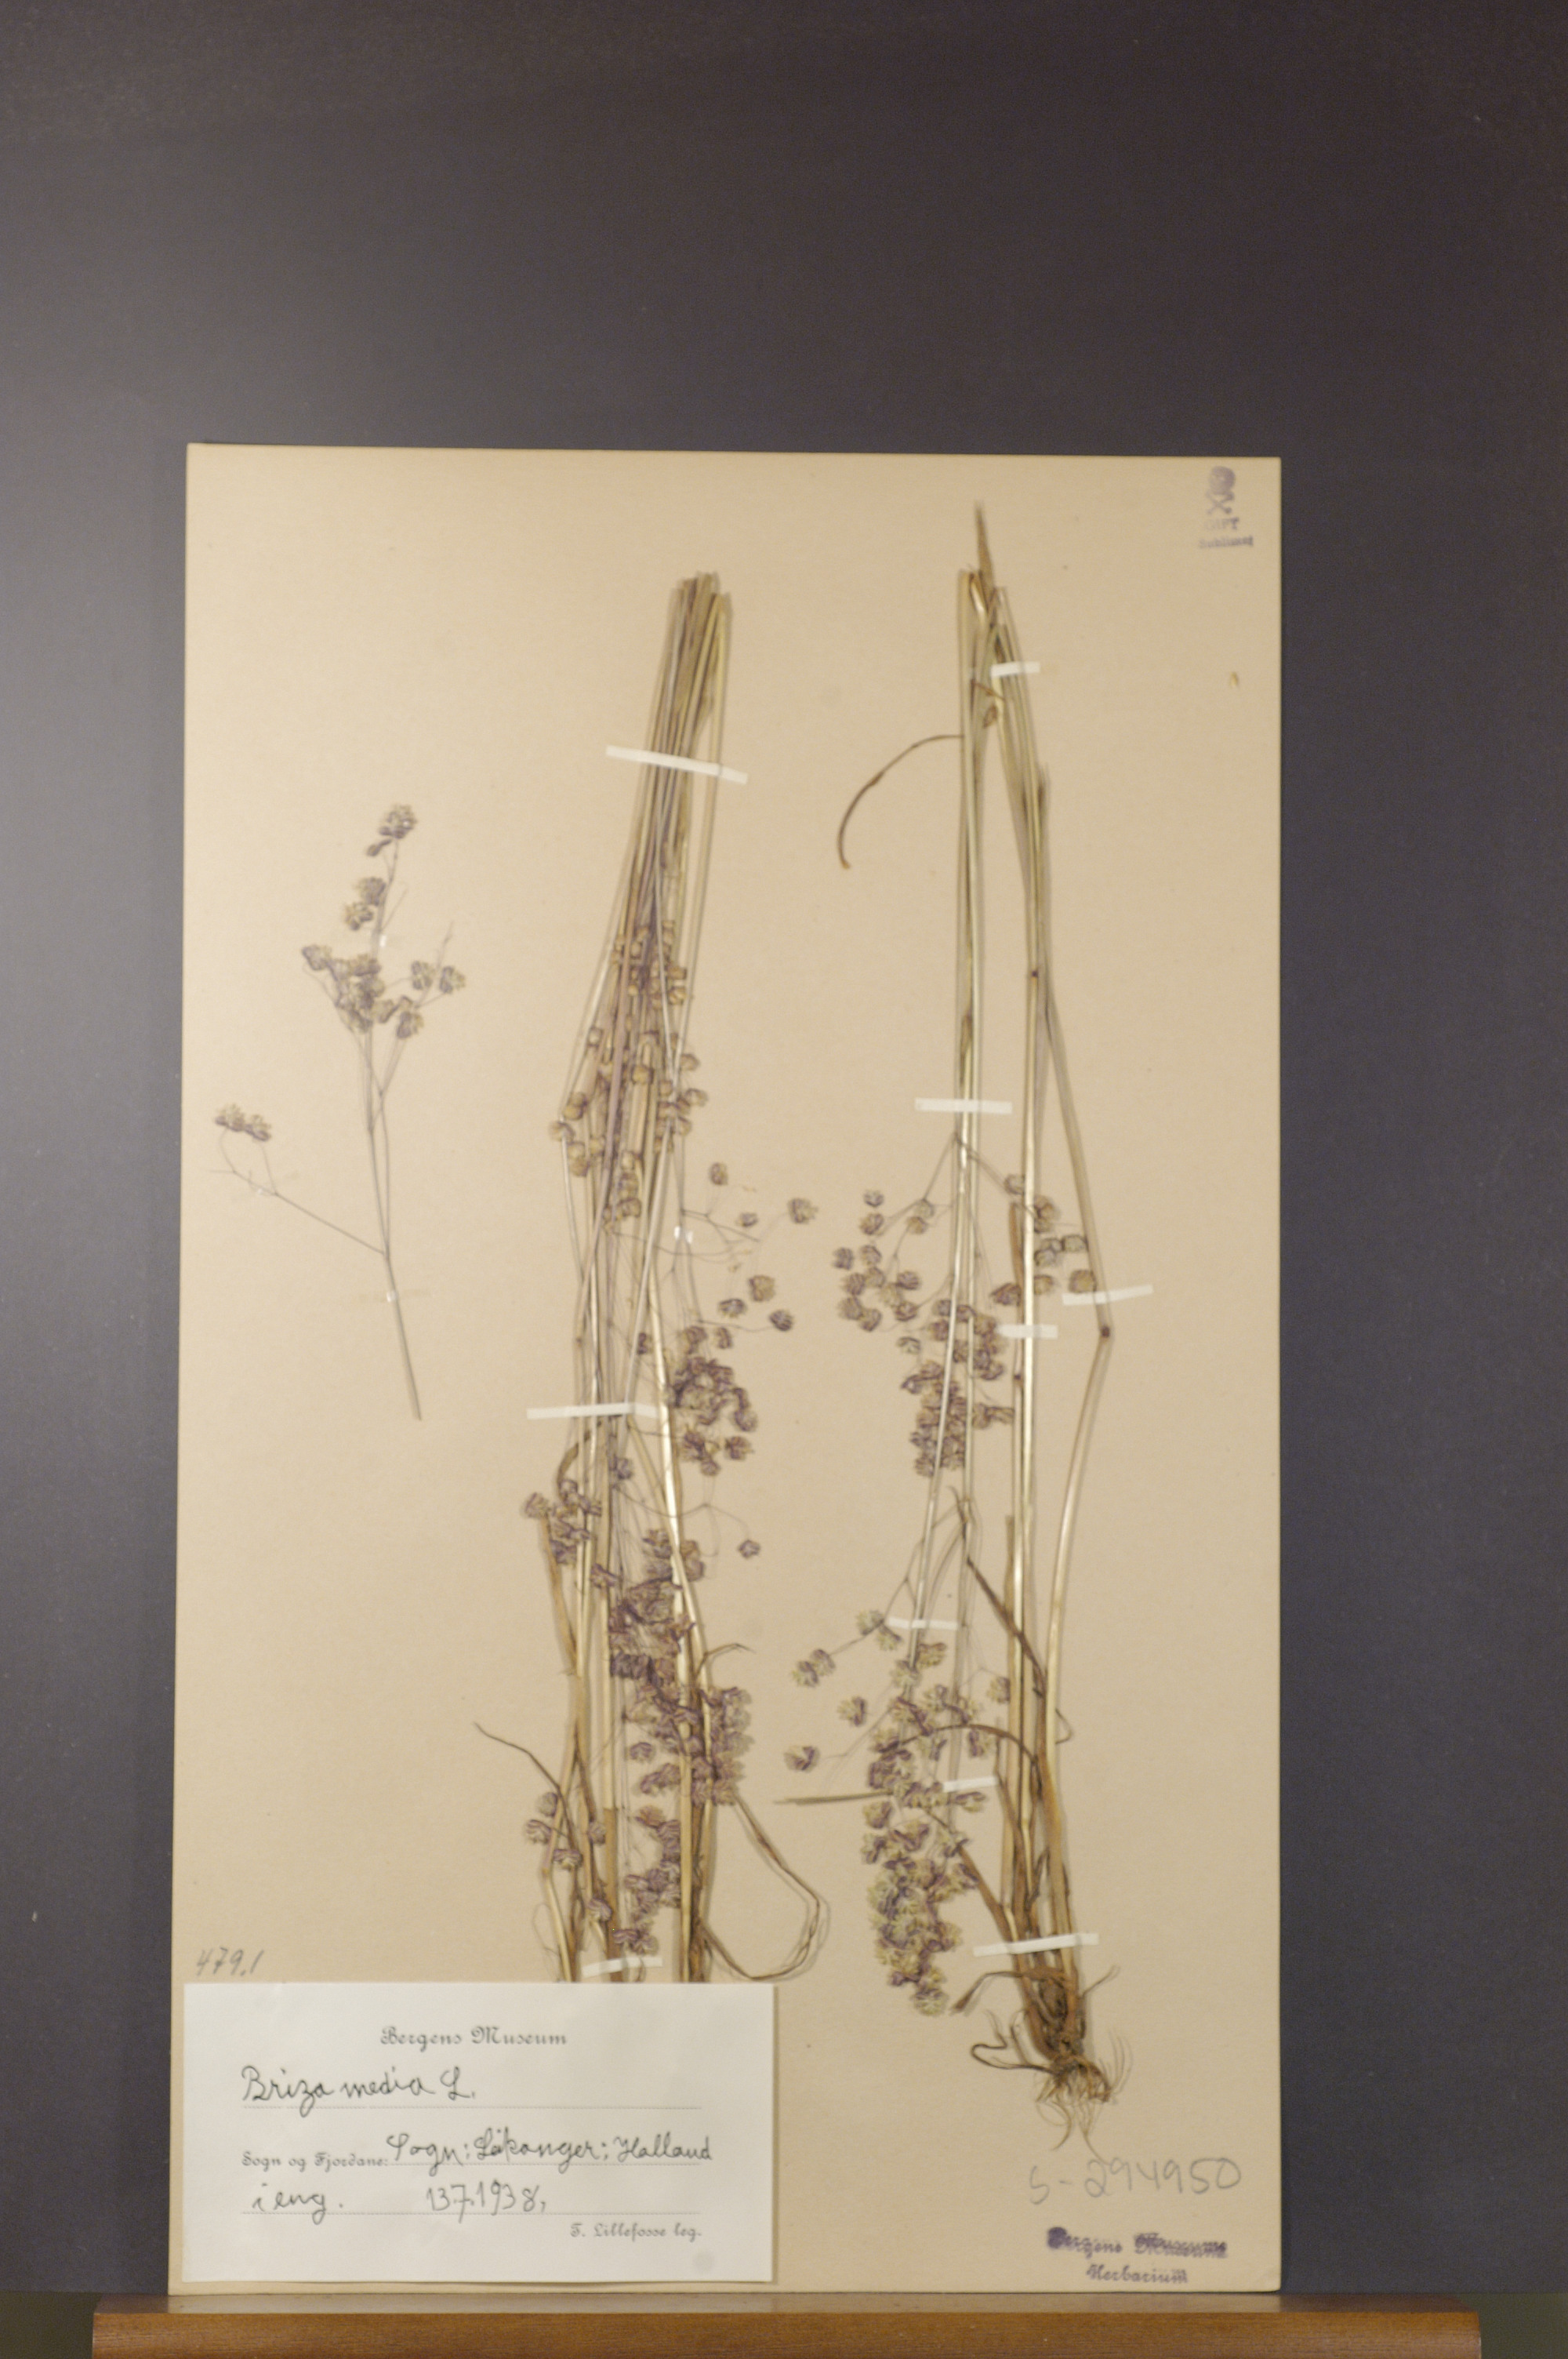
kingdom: Plantae
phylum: Tracheophyta
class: Liliopsida
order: Poales
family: Poaceae
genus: Briza
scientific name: Briza media
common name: Quaking grass
